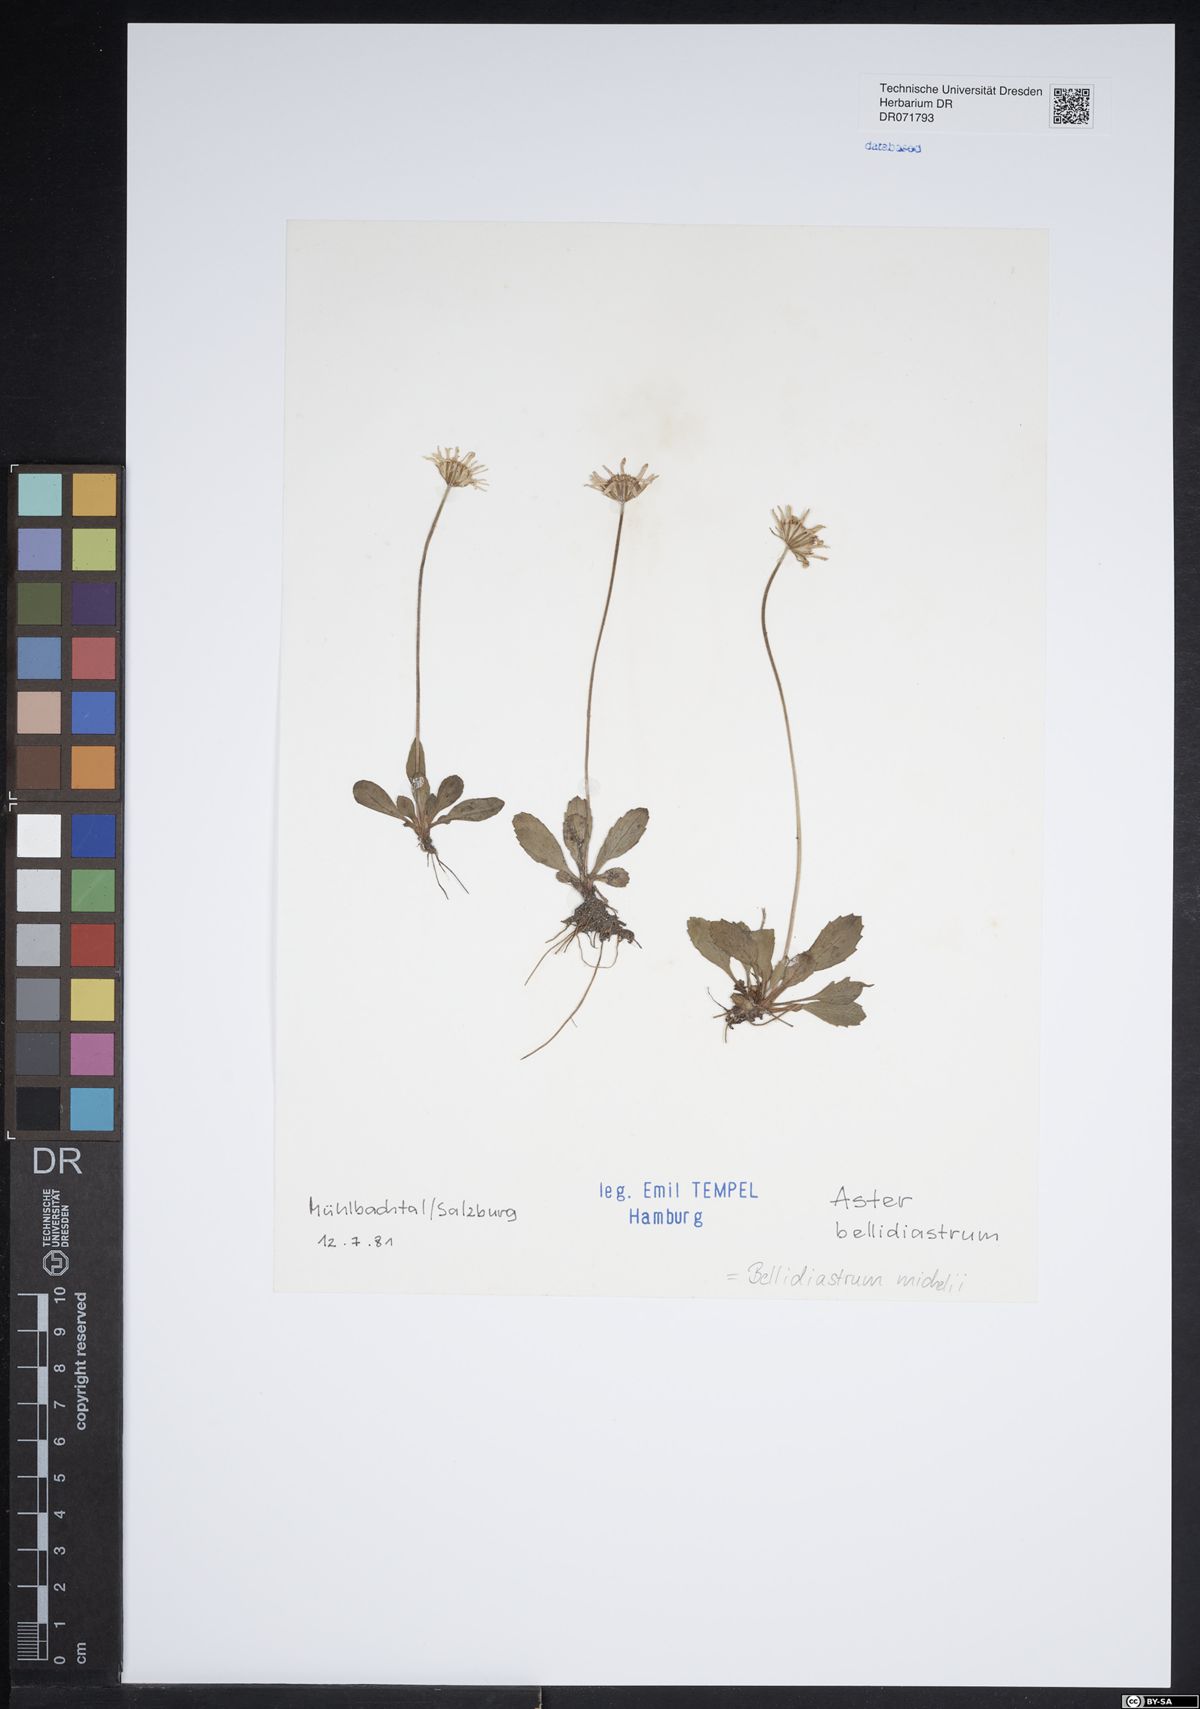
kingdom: Plantae
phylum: Tracheophyta
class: Magnoliopsida
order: Asterales
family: Asteraceae
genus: Bellidiastrum
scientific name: Bellidiastrum michelii
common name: Daisy-star aster
